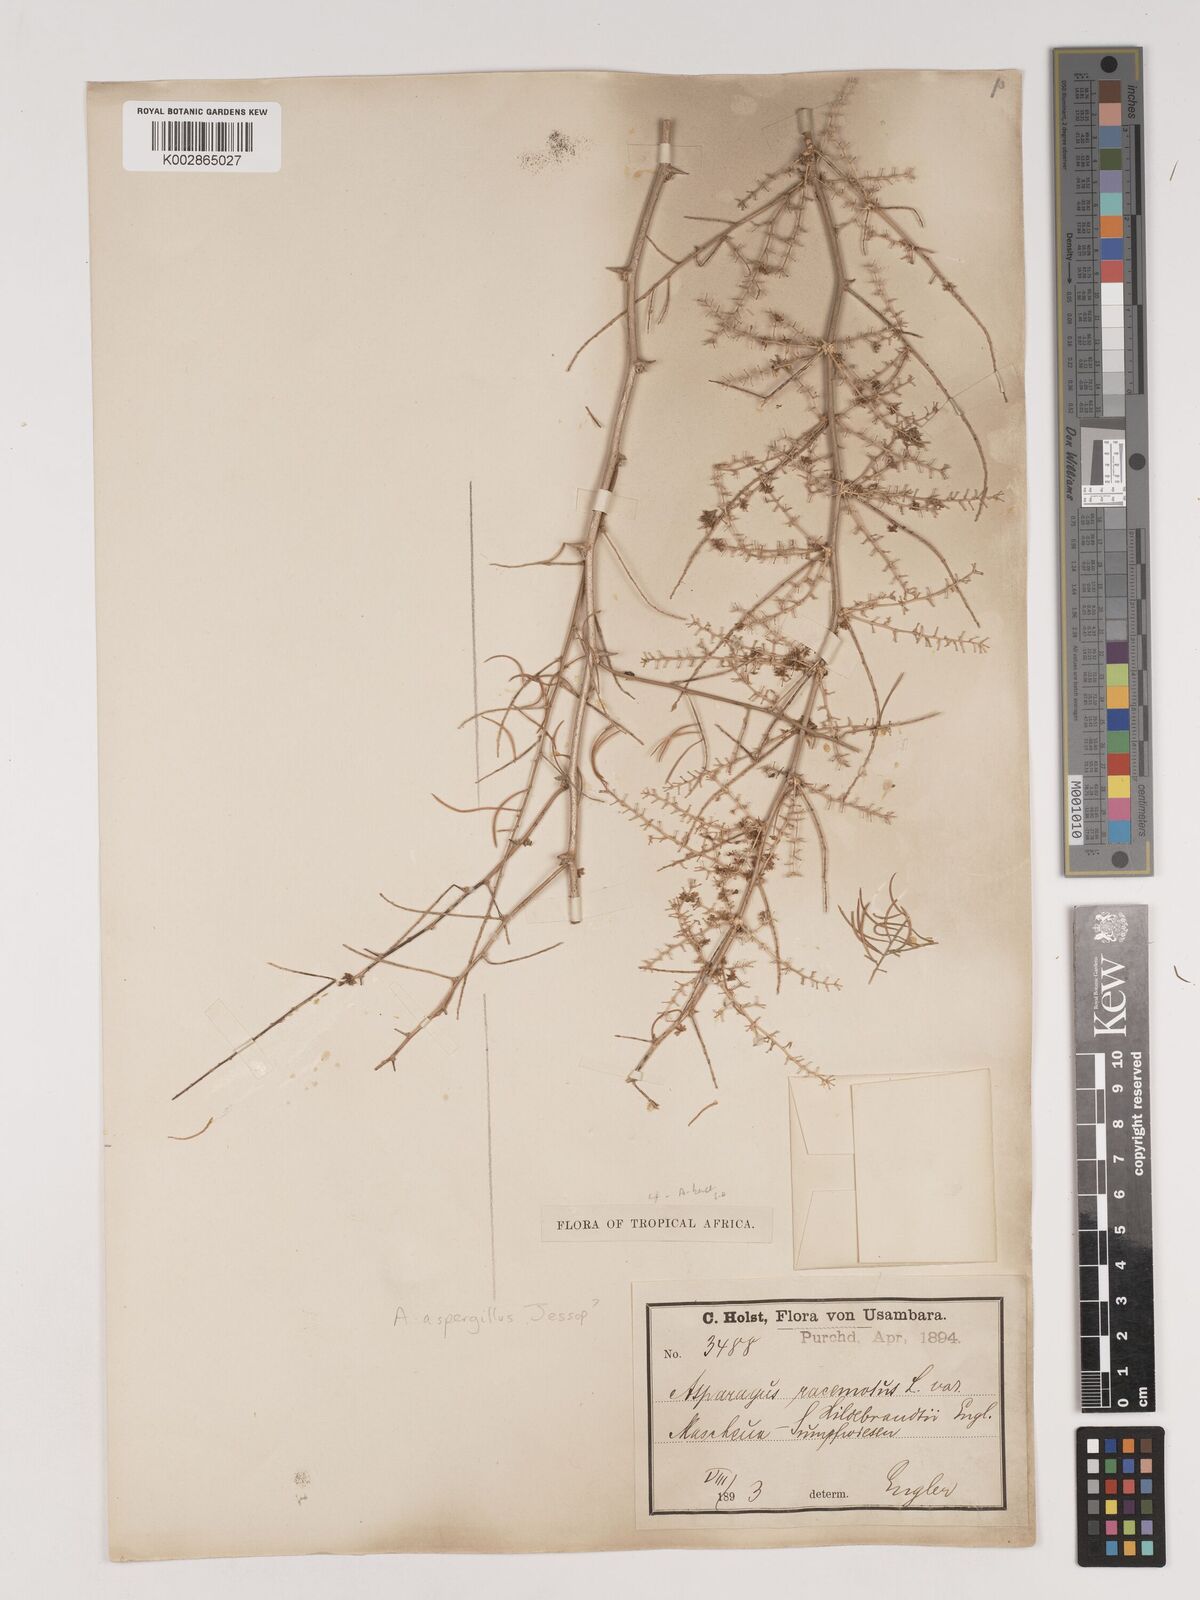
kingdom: Plantae
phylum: Tracheophyta
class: Liliopsida
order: Asparagales
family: Asparagaceae
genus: Asparagus
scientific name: Asparagus buchananii
